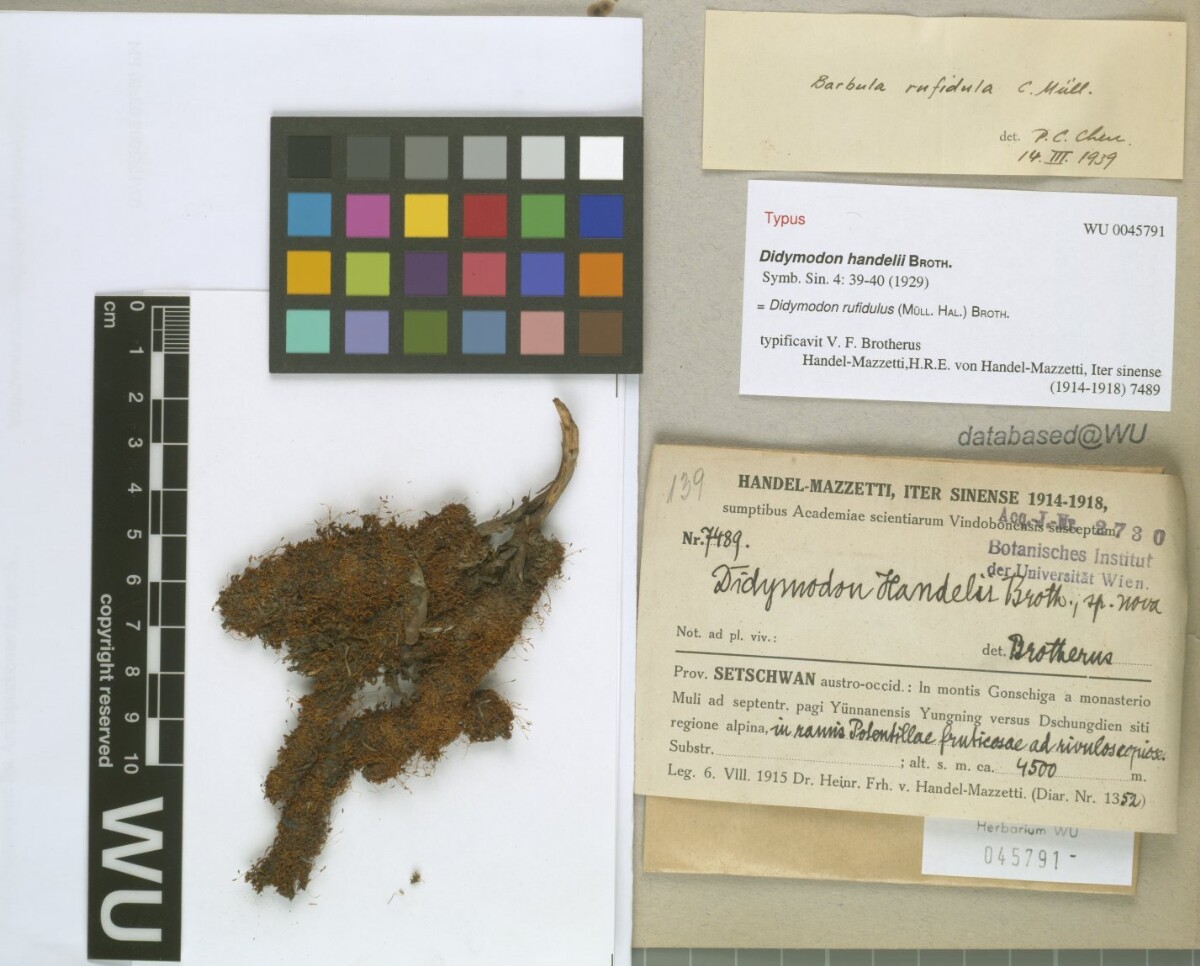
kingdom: Plantae
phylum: Bryophyta
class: Bryopsida
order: Pottiales
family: Pottiaceae
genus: Husnotiella
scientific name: Husnotiella rufidula
